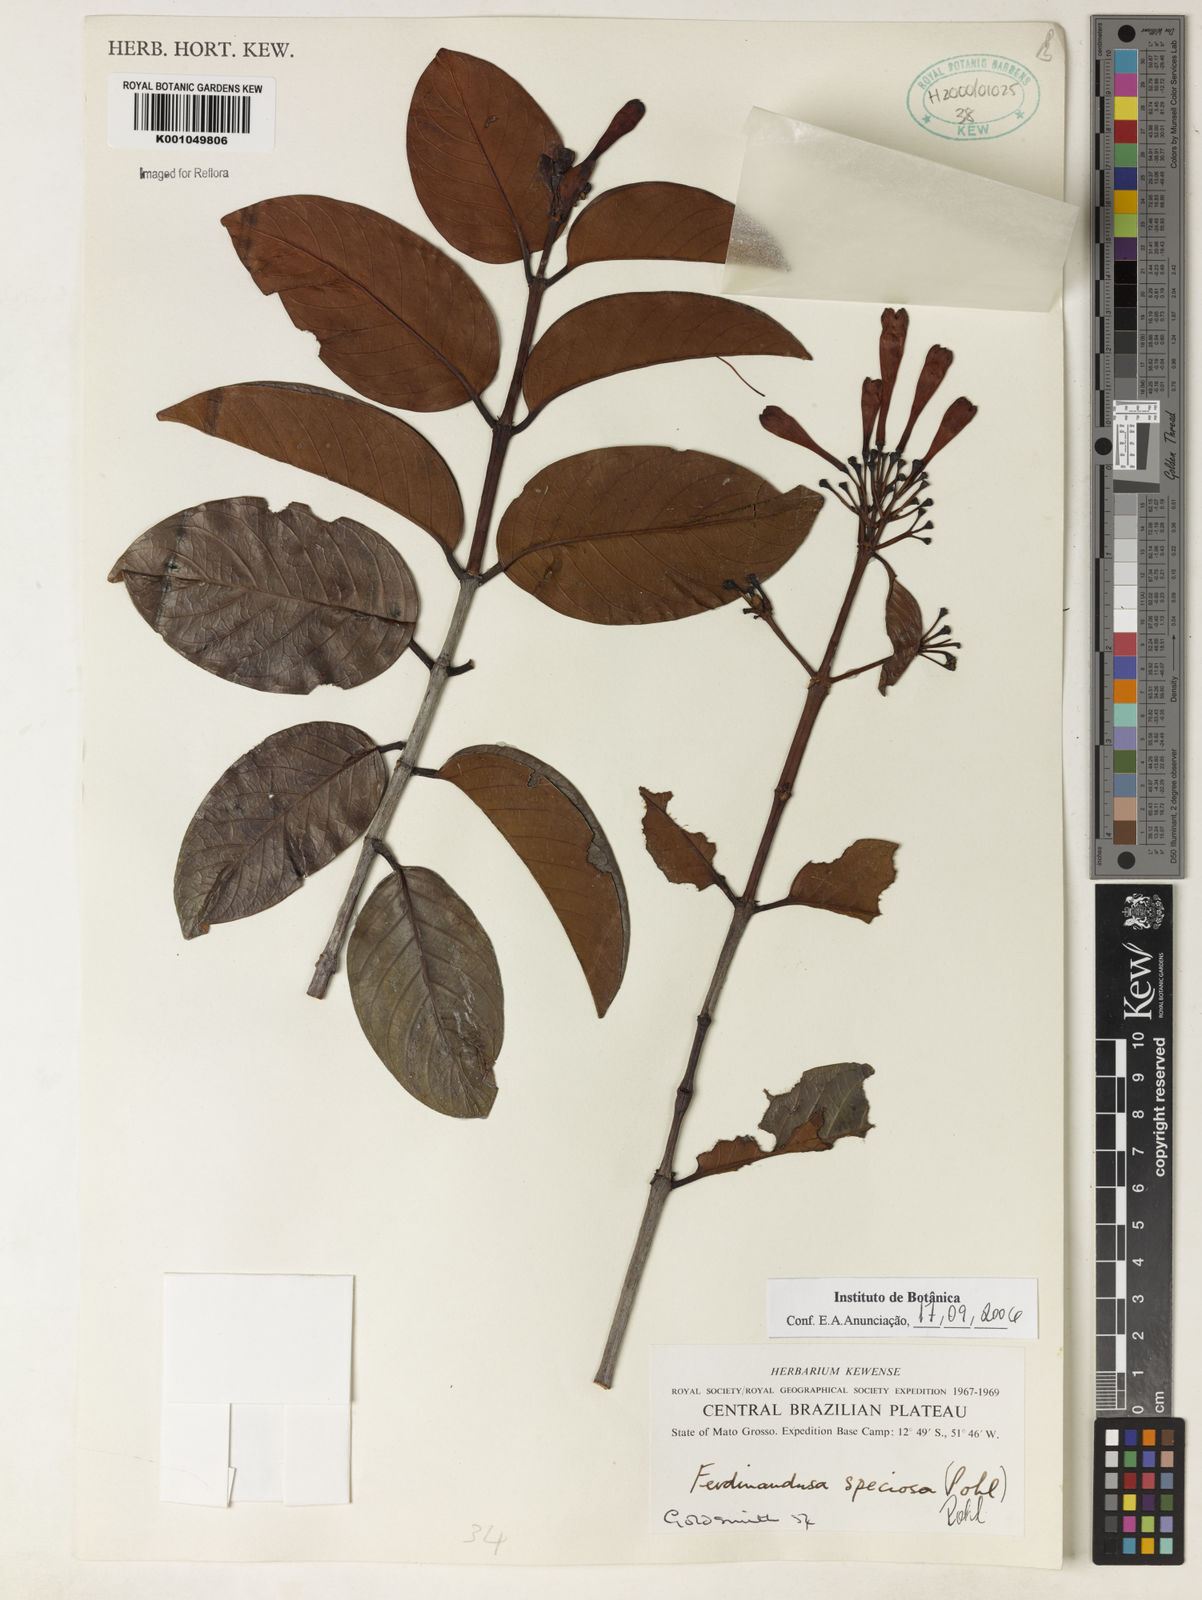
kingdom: Plantae
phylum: Tracheophyta
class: Magnoliopsida
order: Gentianales
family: Rubiaceae
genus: Ferdinandusa
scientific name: Ferdinandusa speciosa
